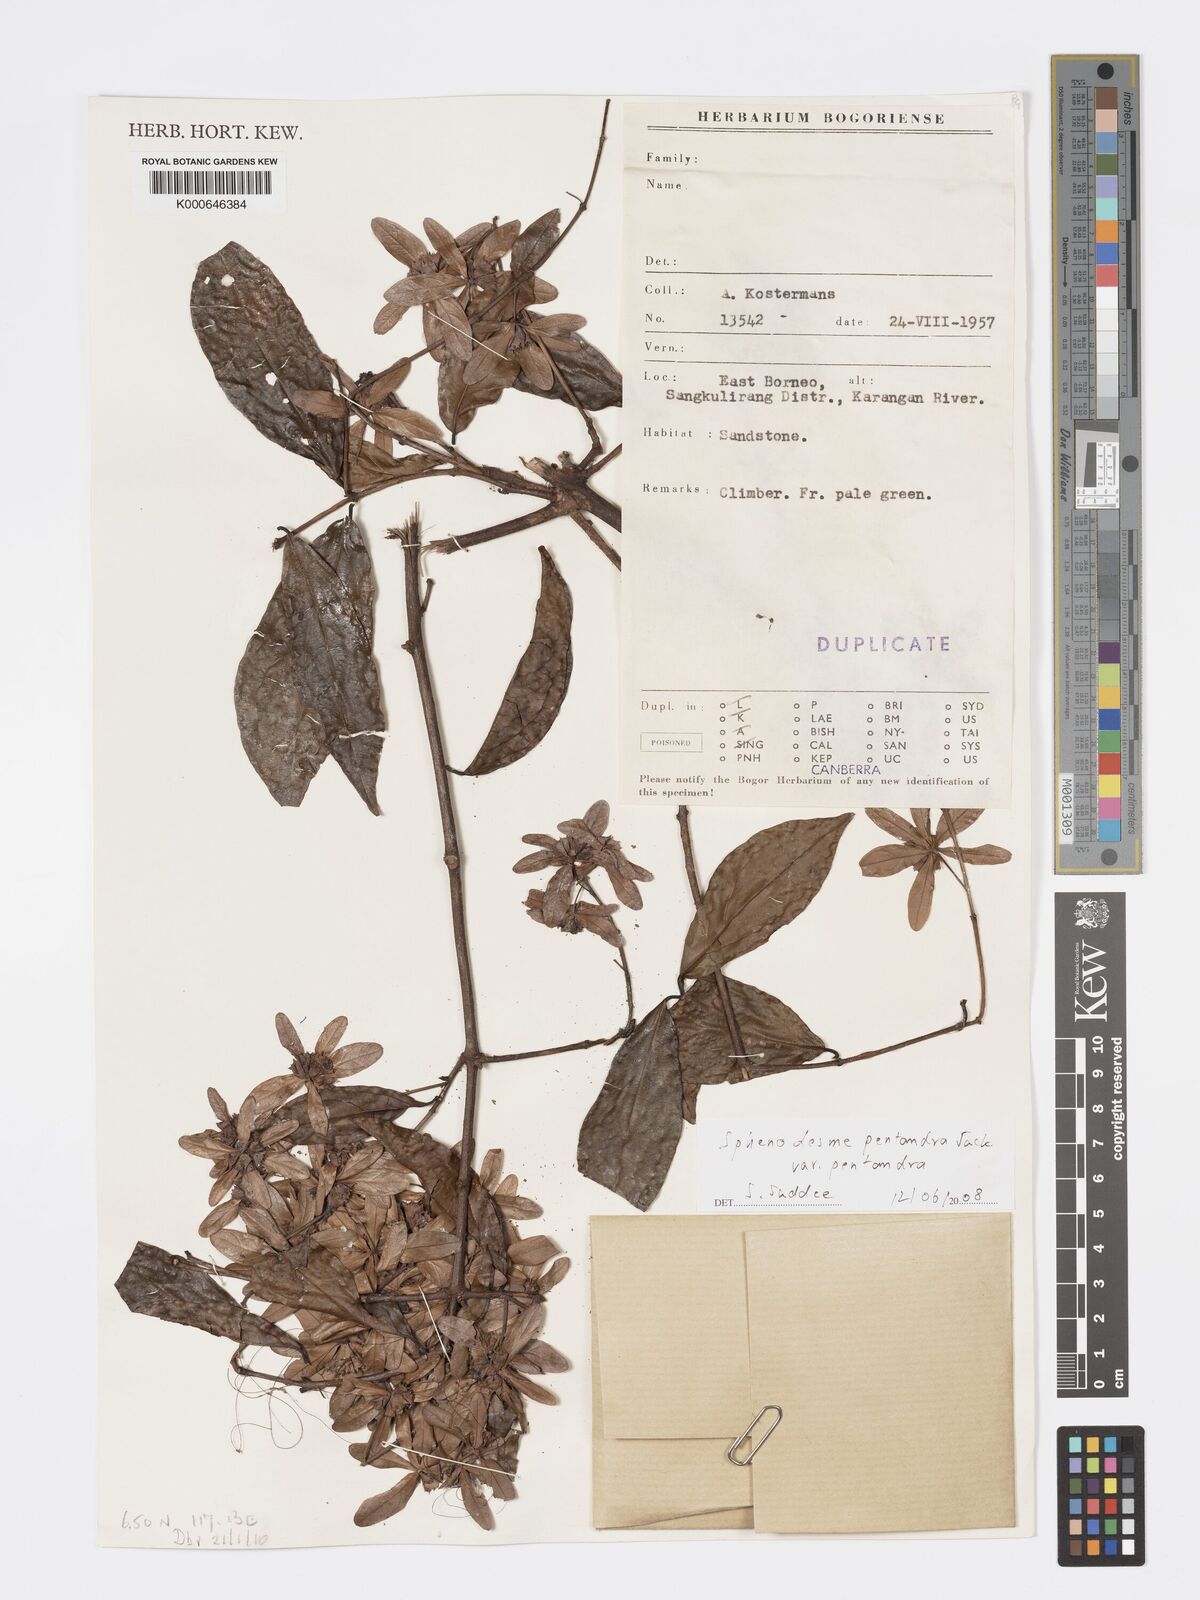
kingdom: Plantae
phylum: Tracheophyta
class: Magnoliopsida
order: Lamiales
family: Lamiaceae
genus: Sphenodesme
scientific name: Sphenodesme pentandra
